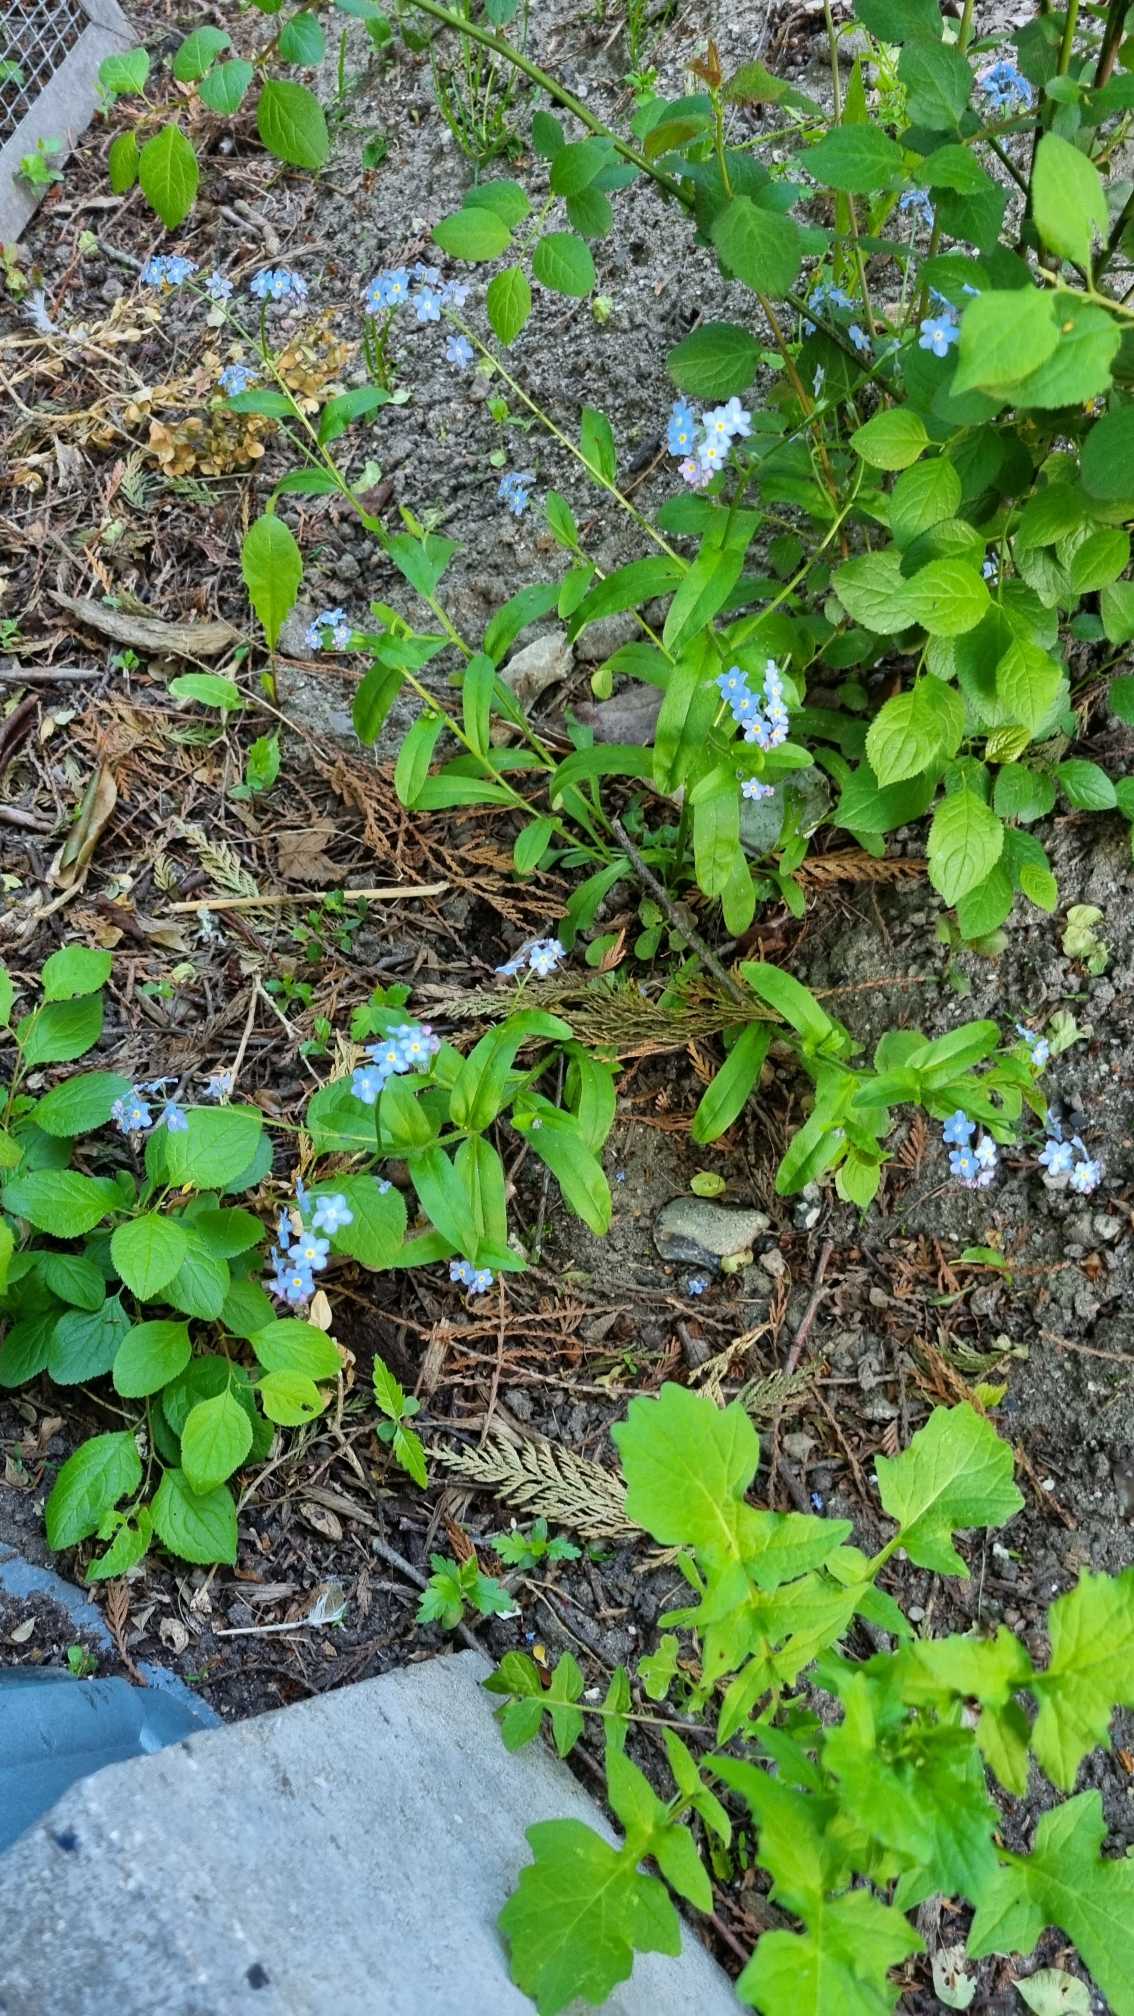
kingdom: Plantae
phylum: Tracheophyta
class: Magnoliopsida
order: Boraginales
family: Boraginaceae
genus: Myosotis
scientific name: Myosotis sylvatica
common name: Skov-forglemmigej
